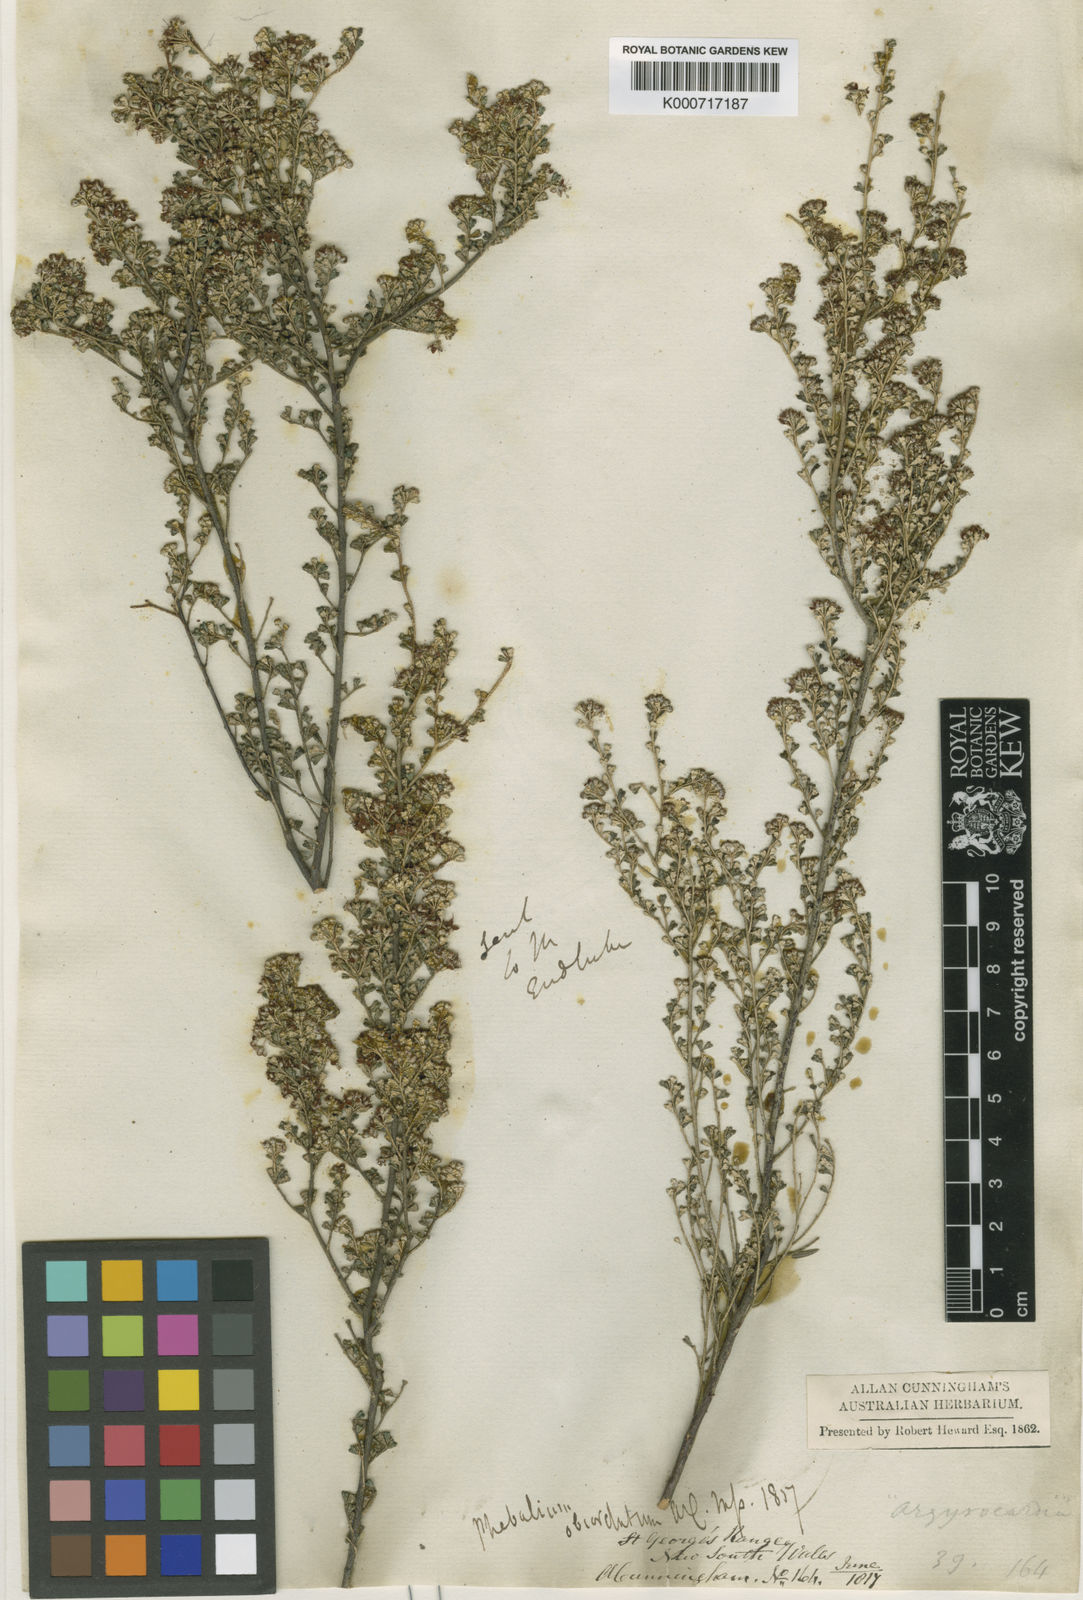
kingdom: Plantae
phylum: Tracheophyta
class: Magnoliopsida
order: Sapindales
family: Rutaceae
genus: Phebalium
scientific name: Phebalium obcordatum
